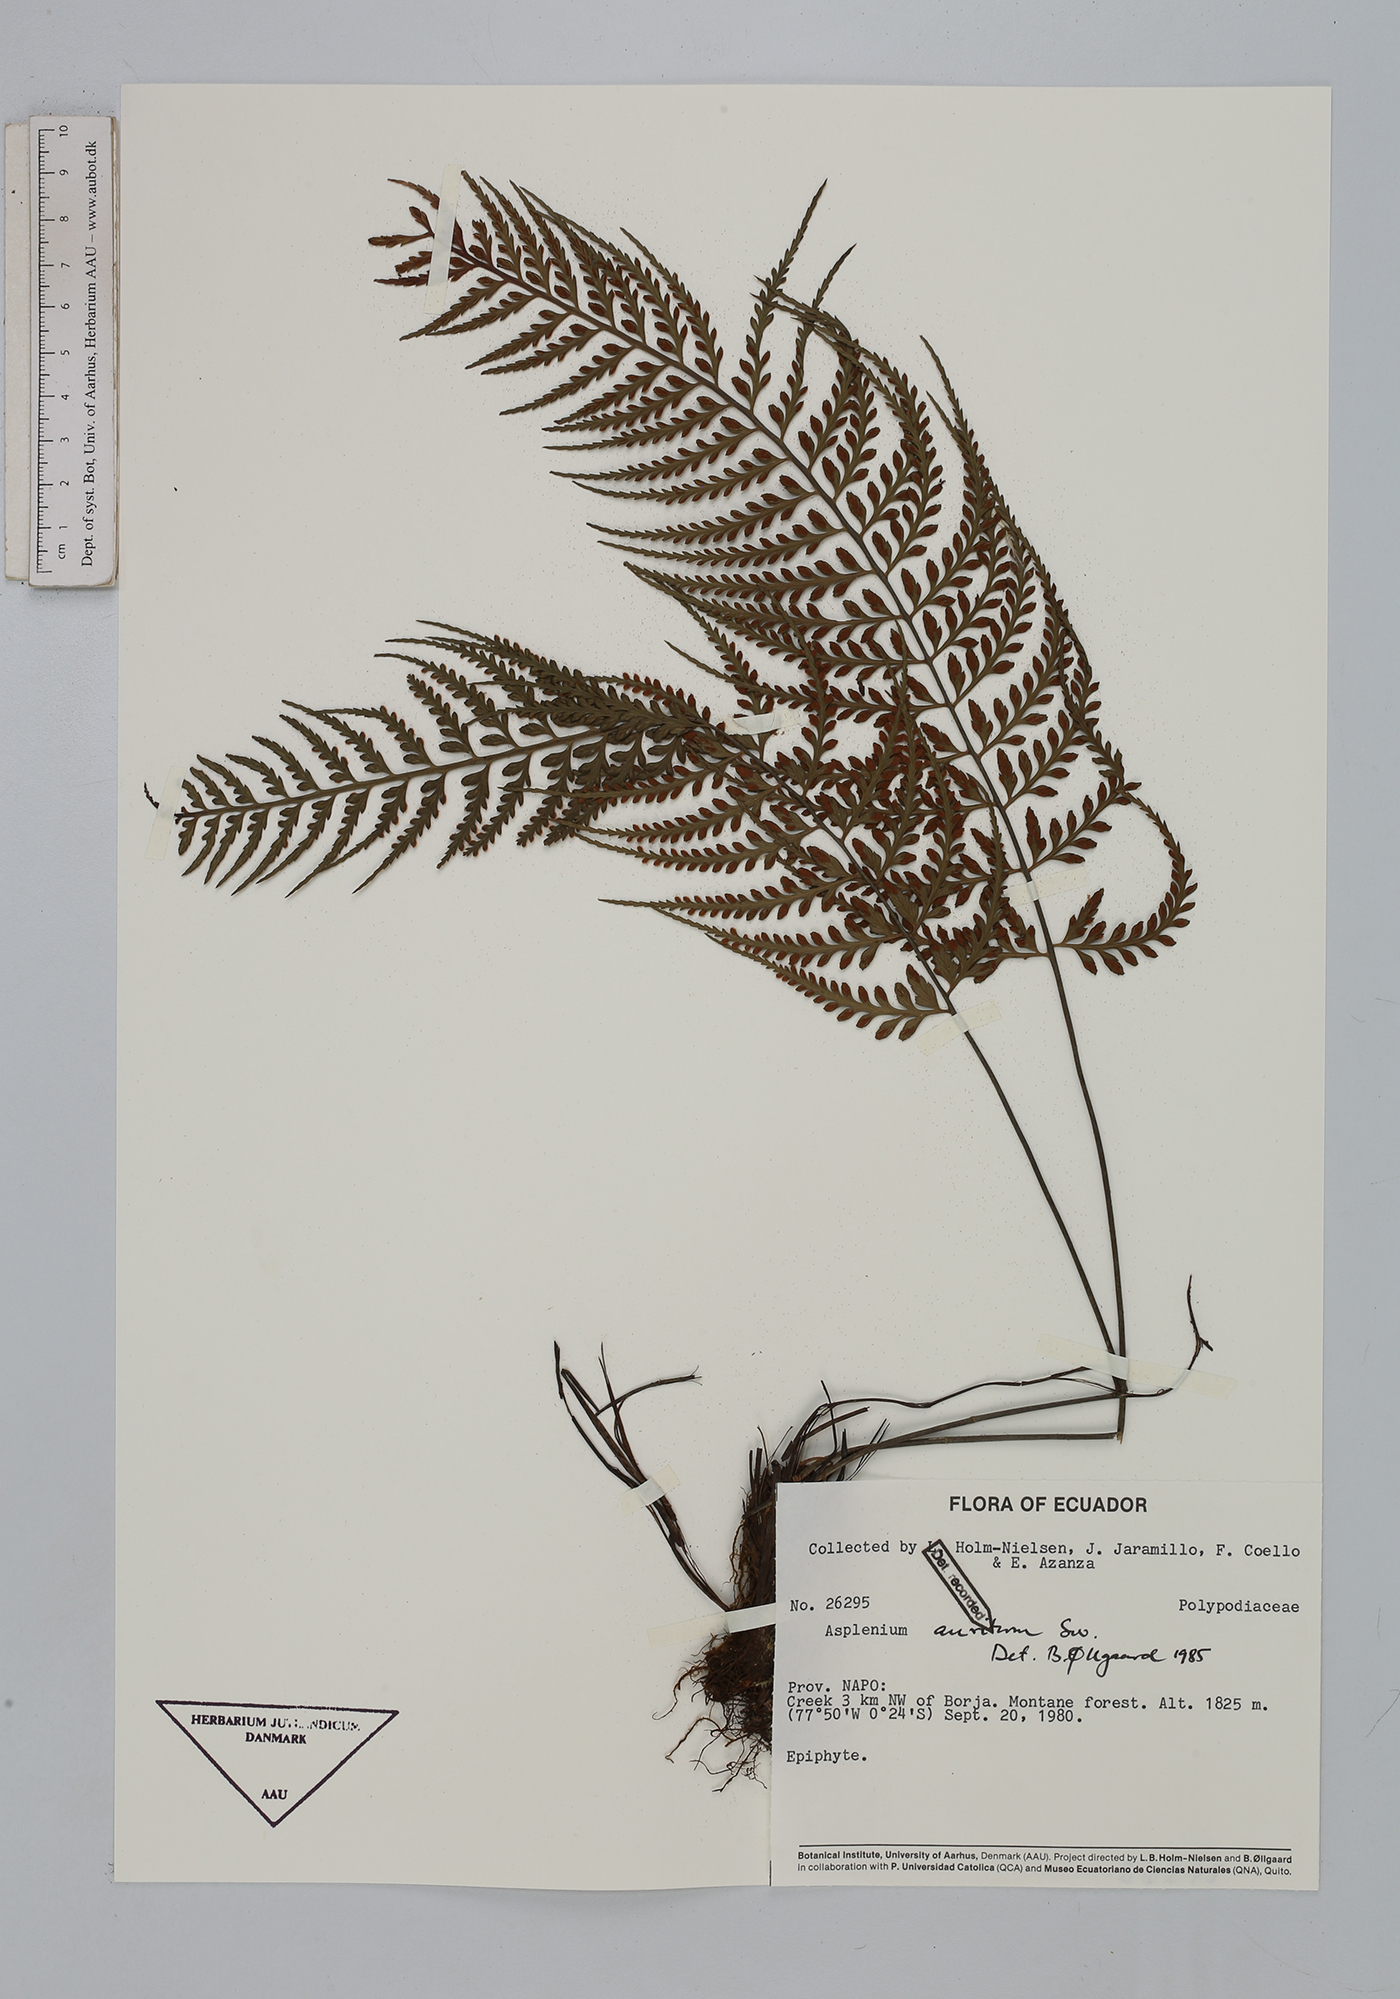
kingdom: Plantae
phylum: Tracheophyta
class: Polypodiopsida
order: Polypodiales
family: Aspleniaceae
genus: Asplenium
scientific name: Asplenium auritum
